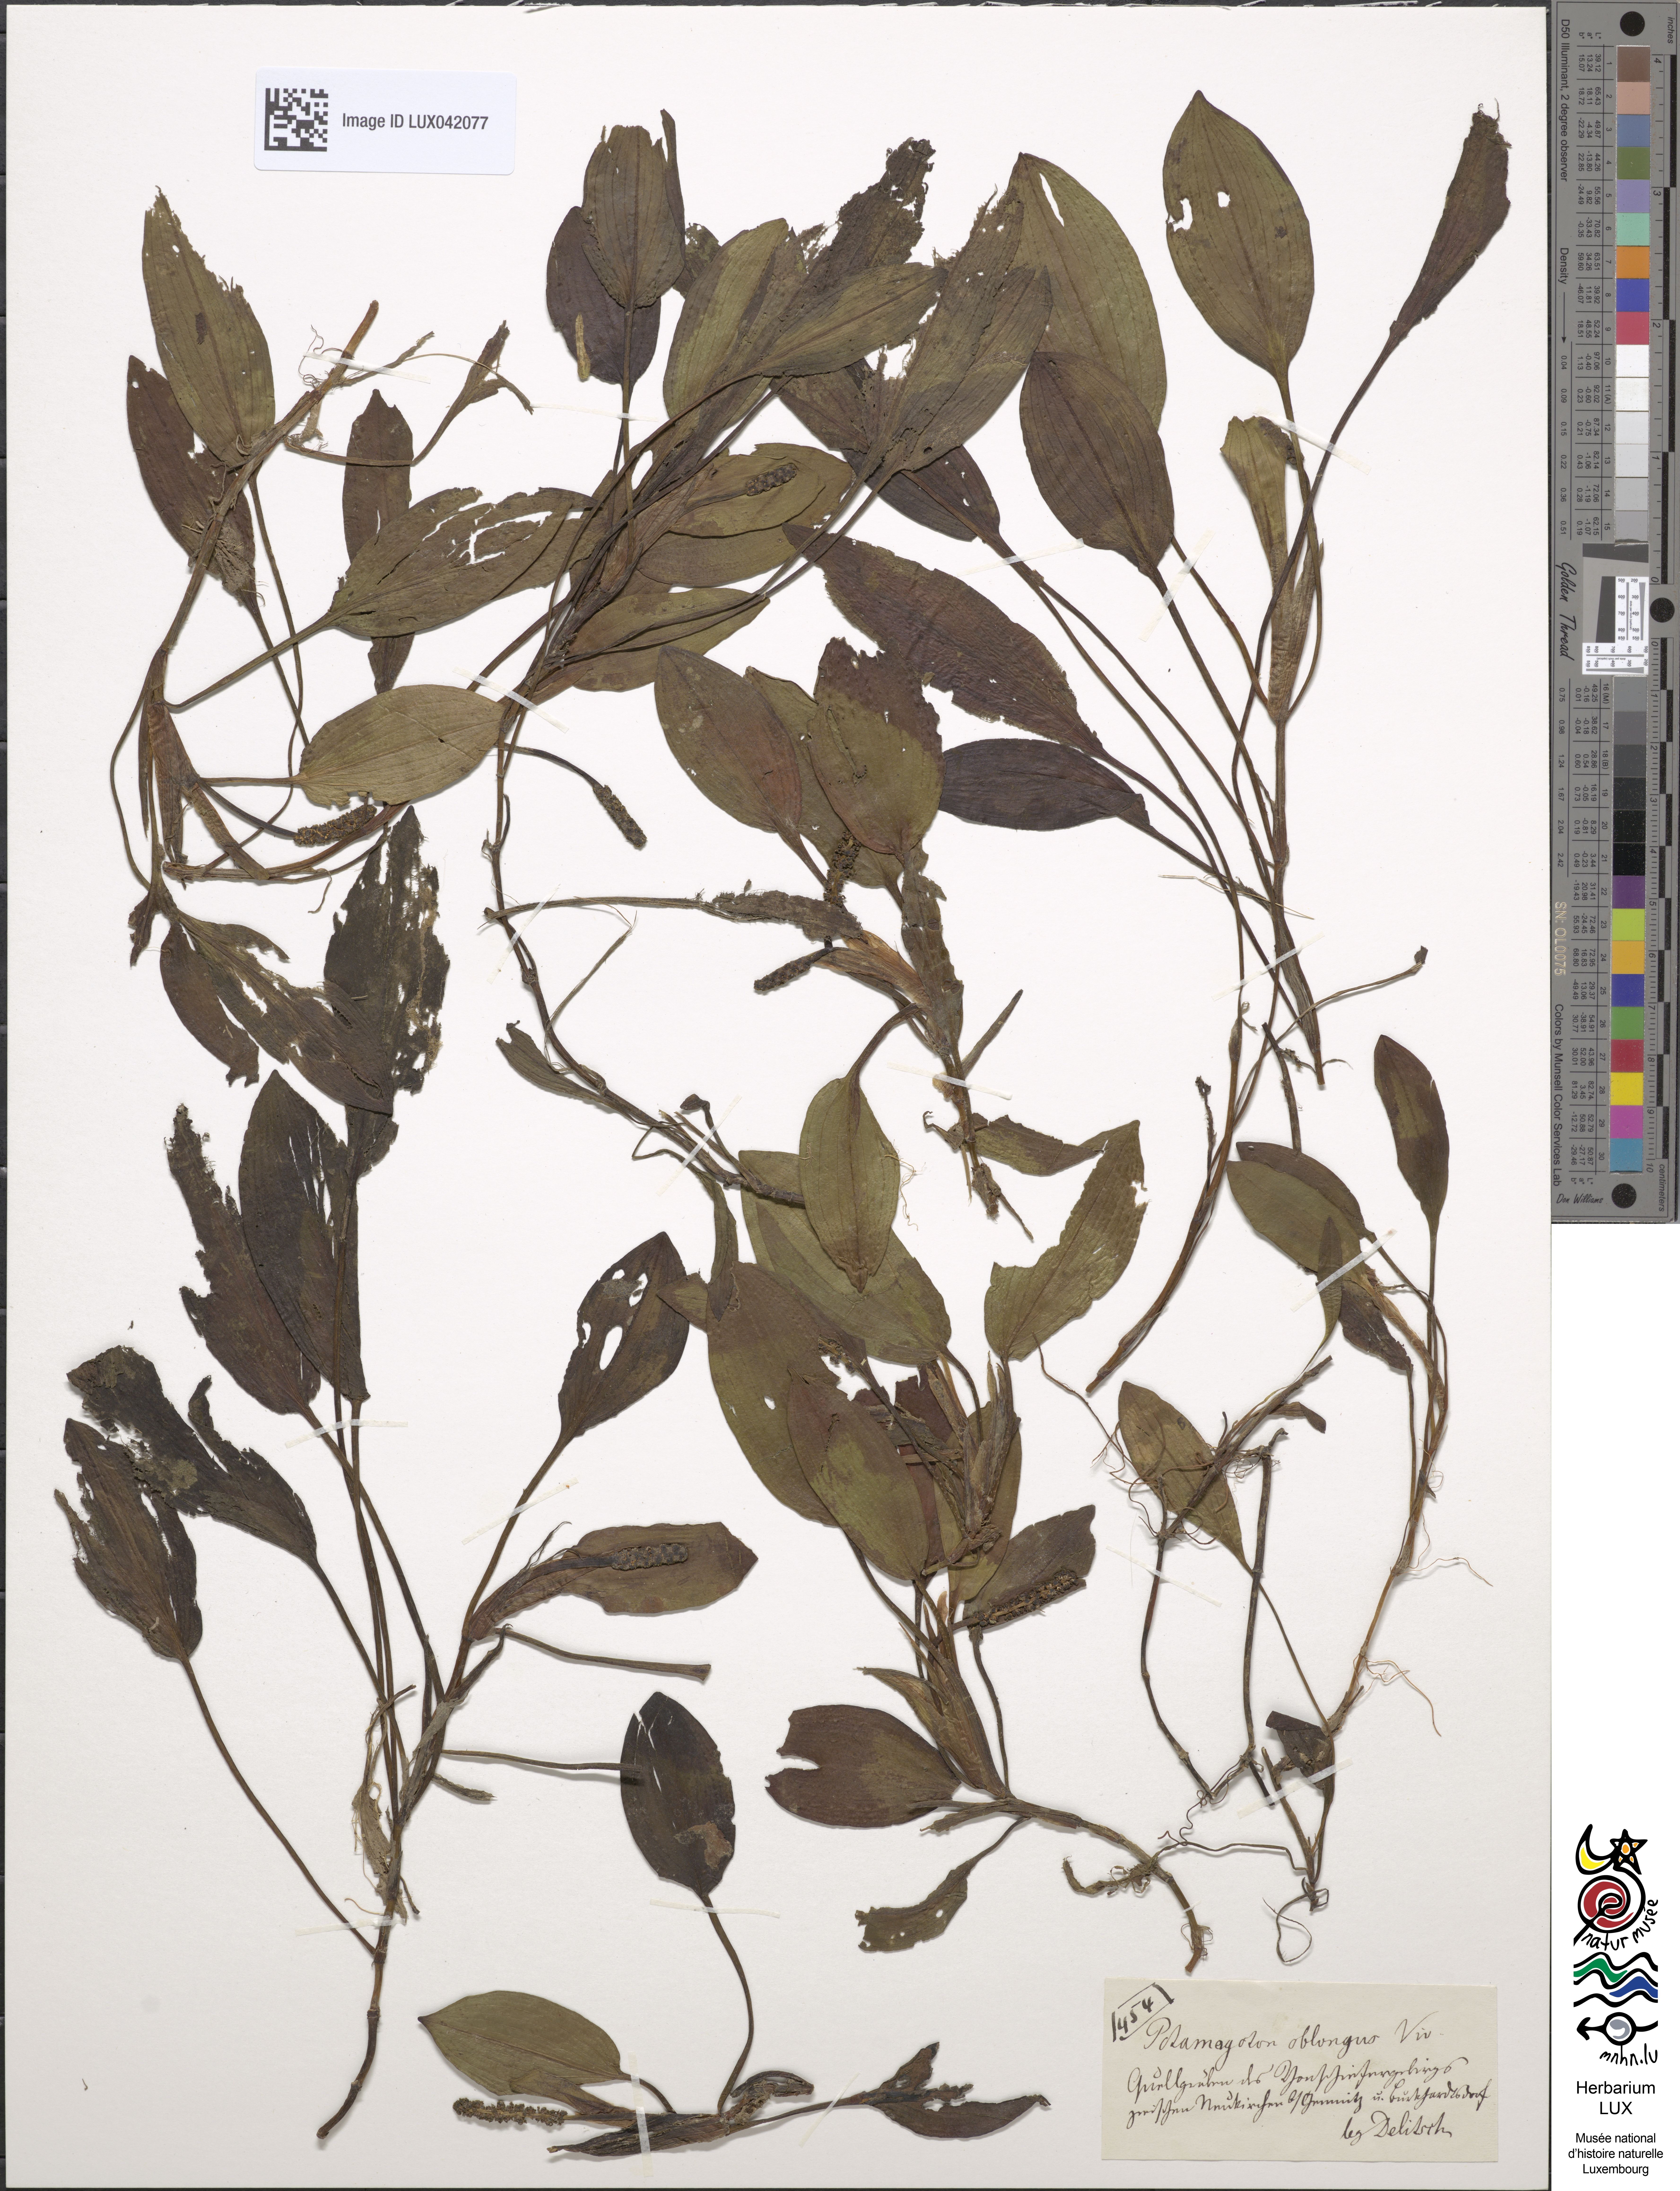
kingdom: Plantae
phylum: Tracheophyta
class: Liliopsida
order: Alismatales
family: Potamogetonaceae
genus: Potamogeton
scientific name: Potamogeton polygonifolius
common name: Bog pondweed
